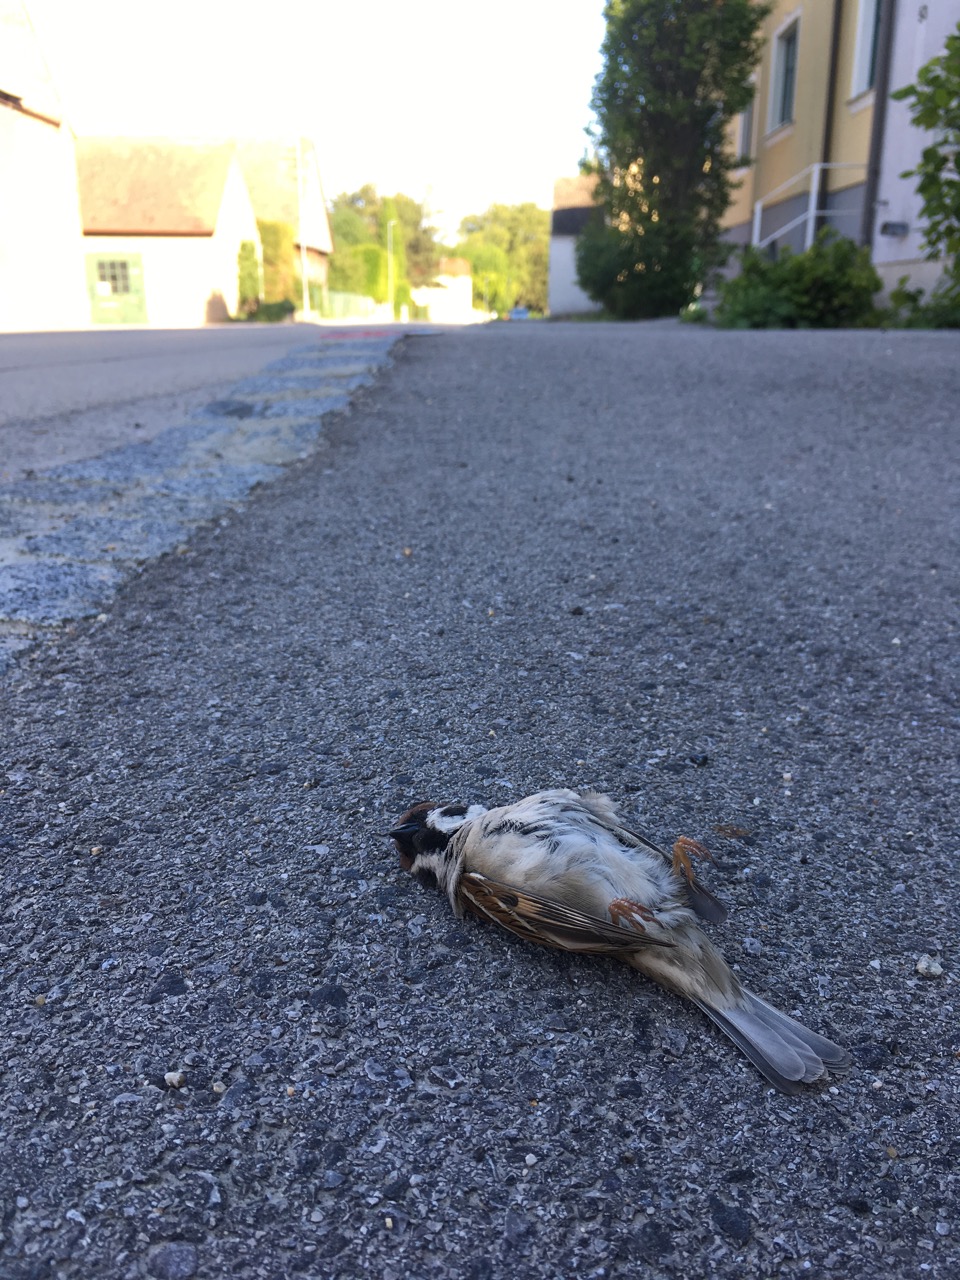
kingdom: Animalia
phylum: Chordata
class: Aves
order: Passeriformes
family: Passeridae
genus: Passer
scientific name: Passer montanus
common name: Eurasian tree sparrow
